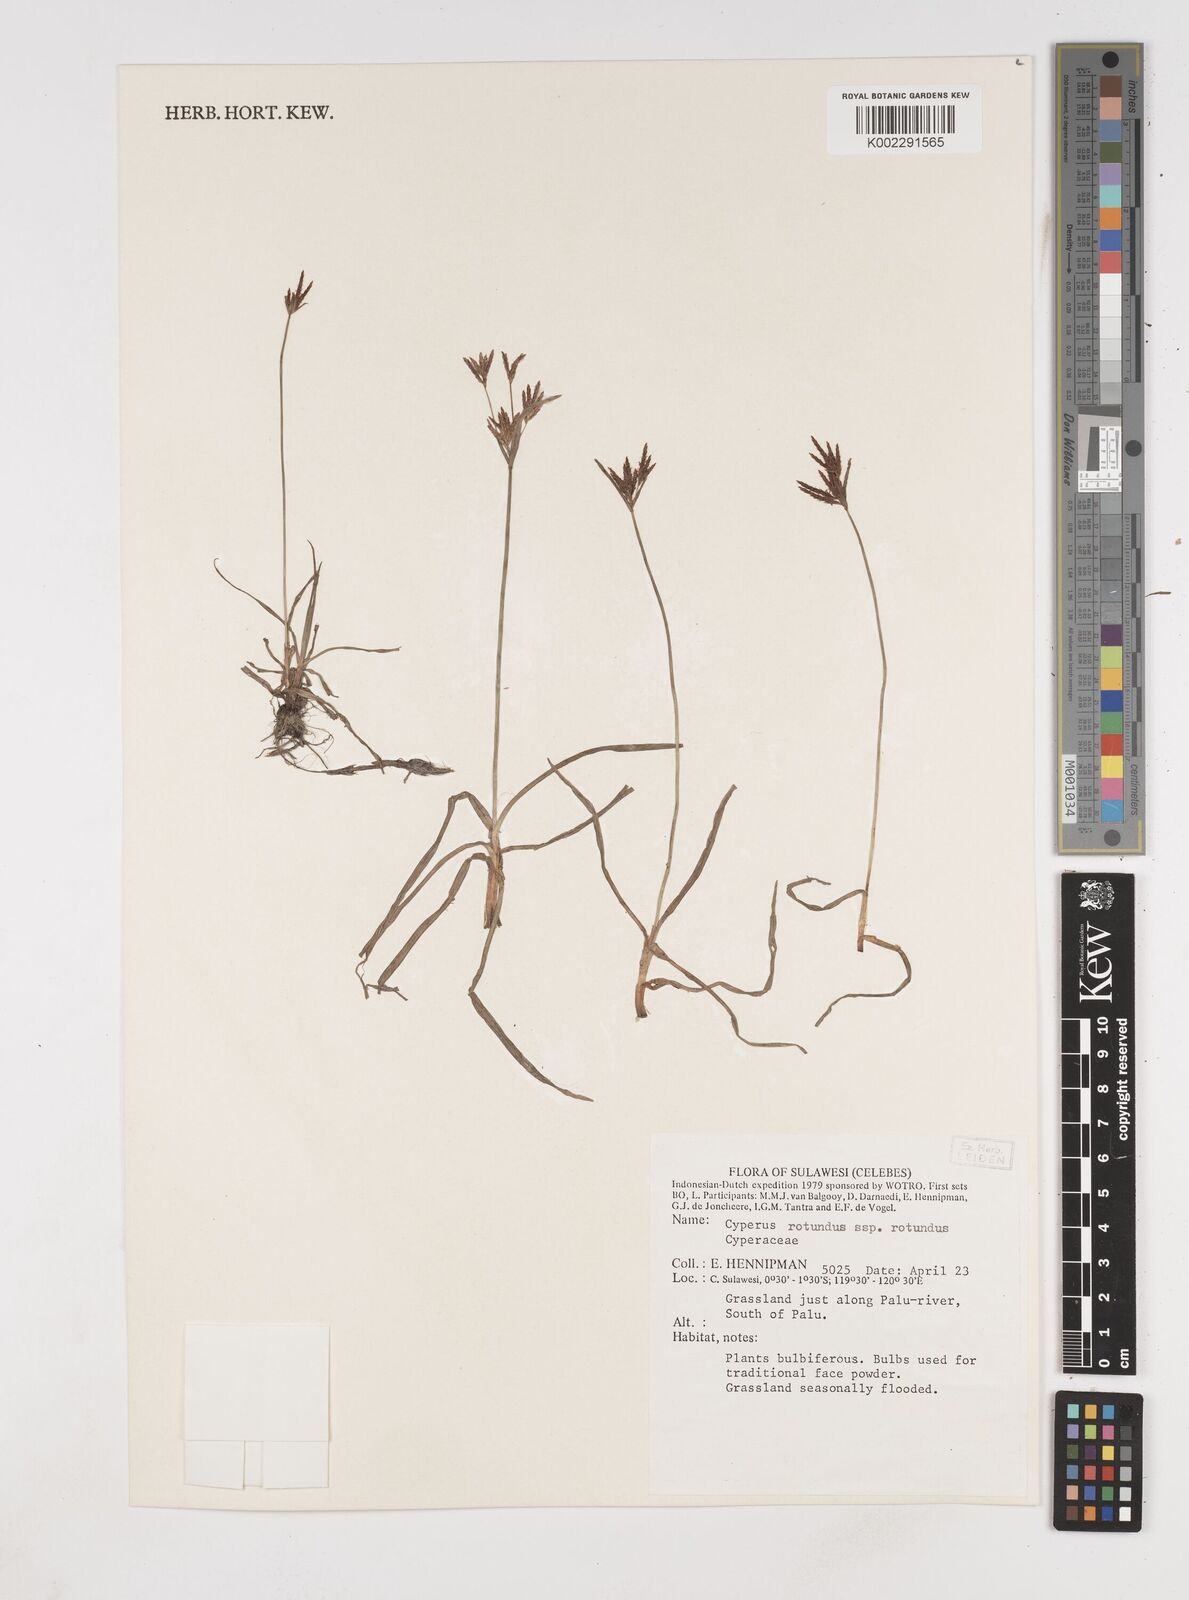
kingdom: Plantae
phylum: Tracheophyta
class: Liliopsida
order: Poales
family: Cyperaceae
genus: Cyperus
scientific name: Cyperus rotundus
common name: Nutgrass
